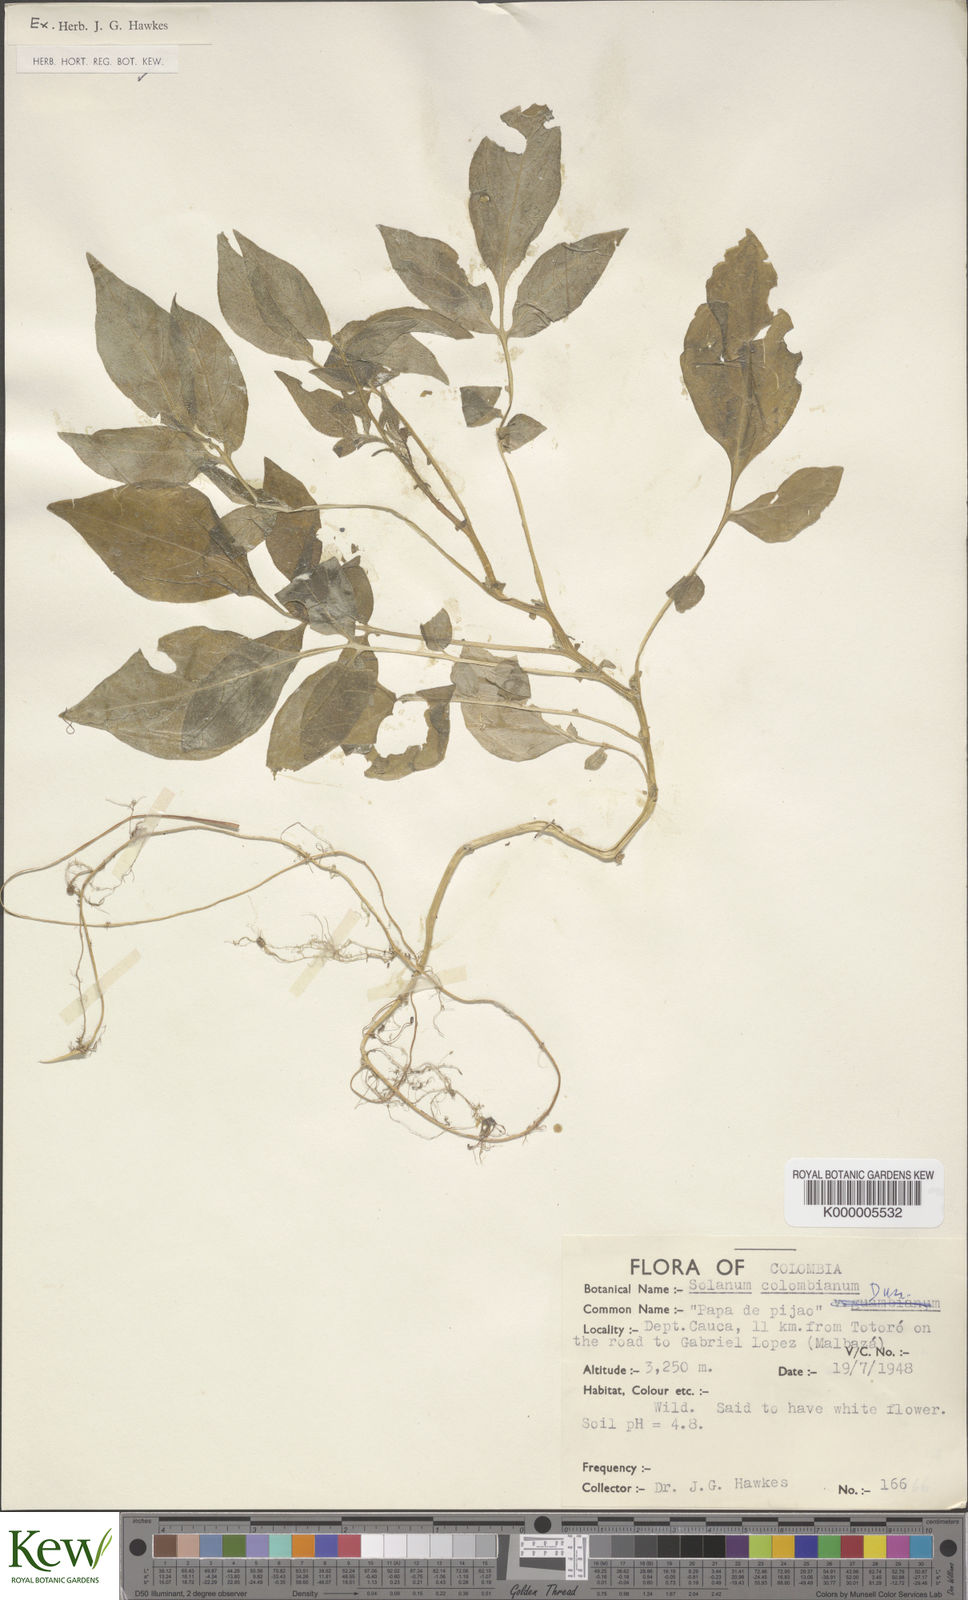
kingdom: Plantae
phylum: Tracheophyta
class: Magnoliopsida
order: Solanales
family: Solanaceae
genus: Solanum
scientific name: Solanum flahaultii
